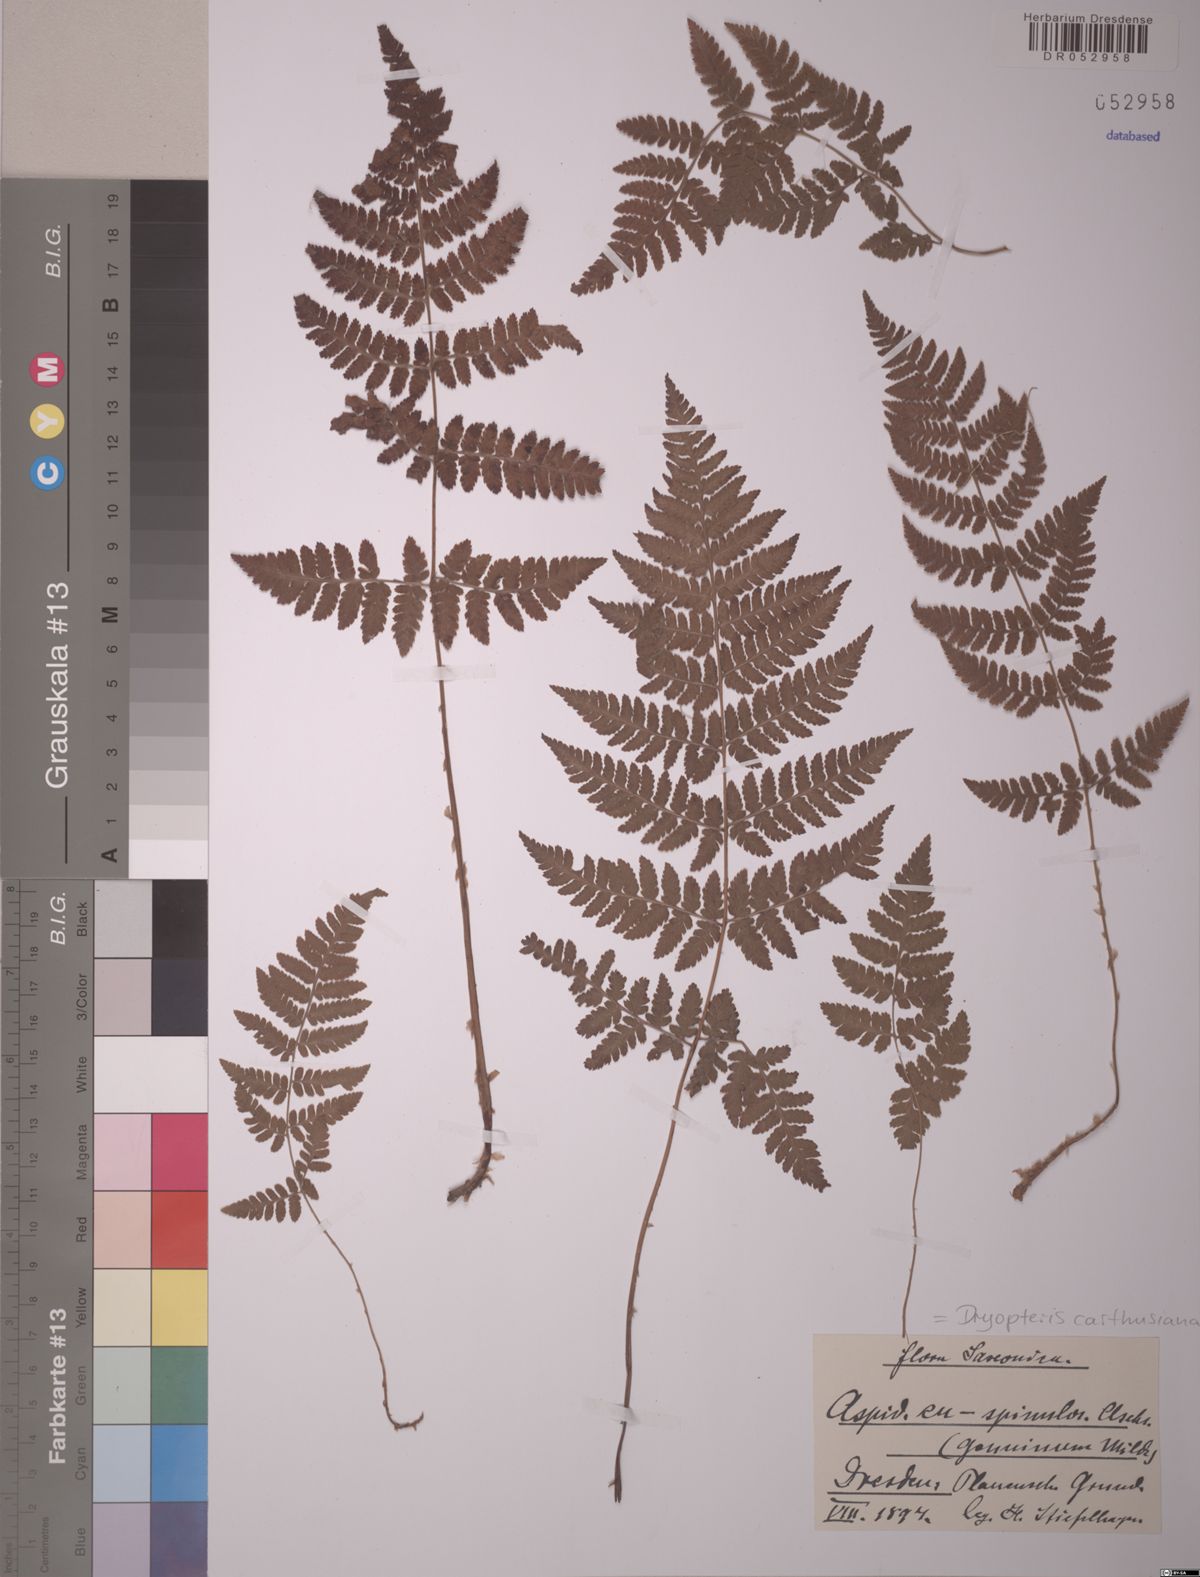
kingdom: Plantae
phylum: Tracheophyta
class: Polypodiopsida
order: Polypodiales
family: Dryopteridaceae
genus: Dryopteris
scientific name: Dryopteris carthusiana
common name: Narrow buckler-fern
